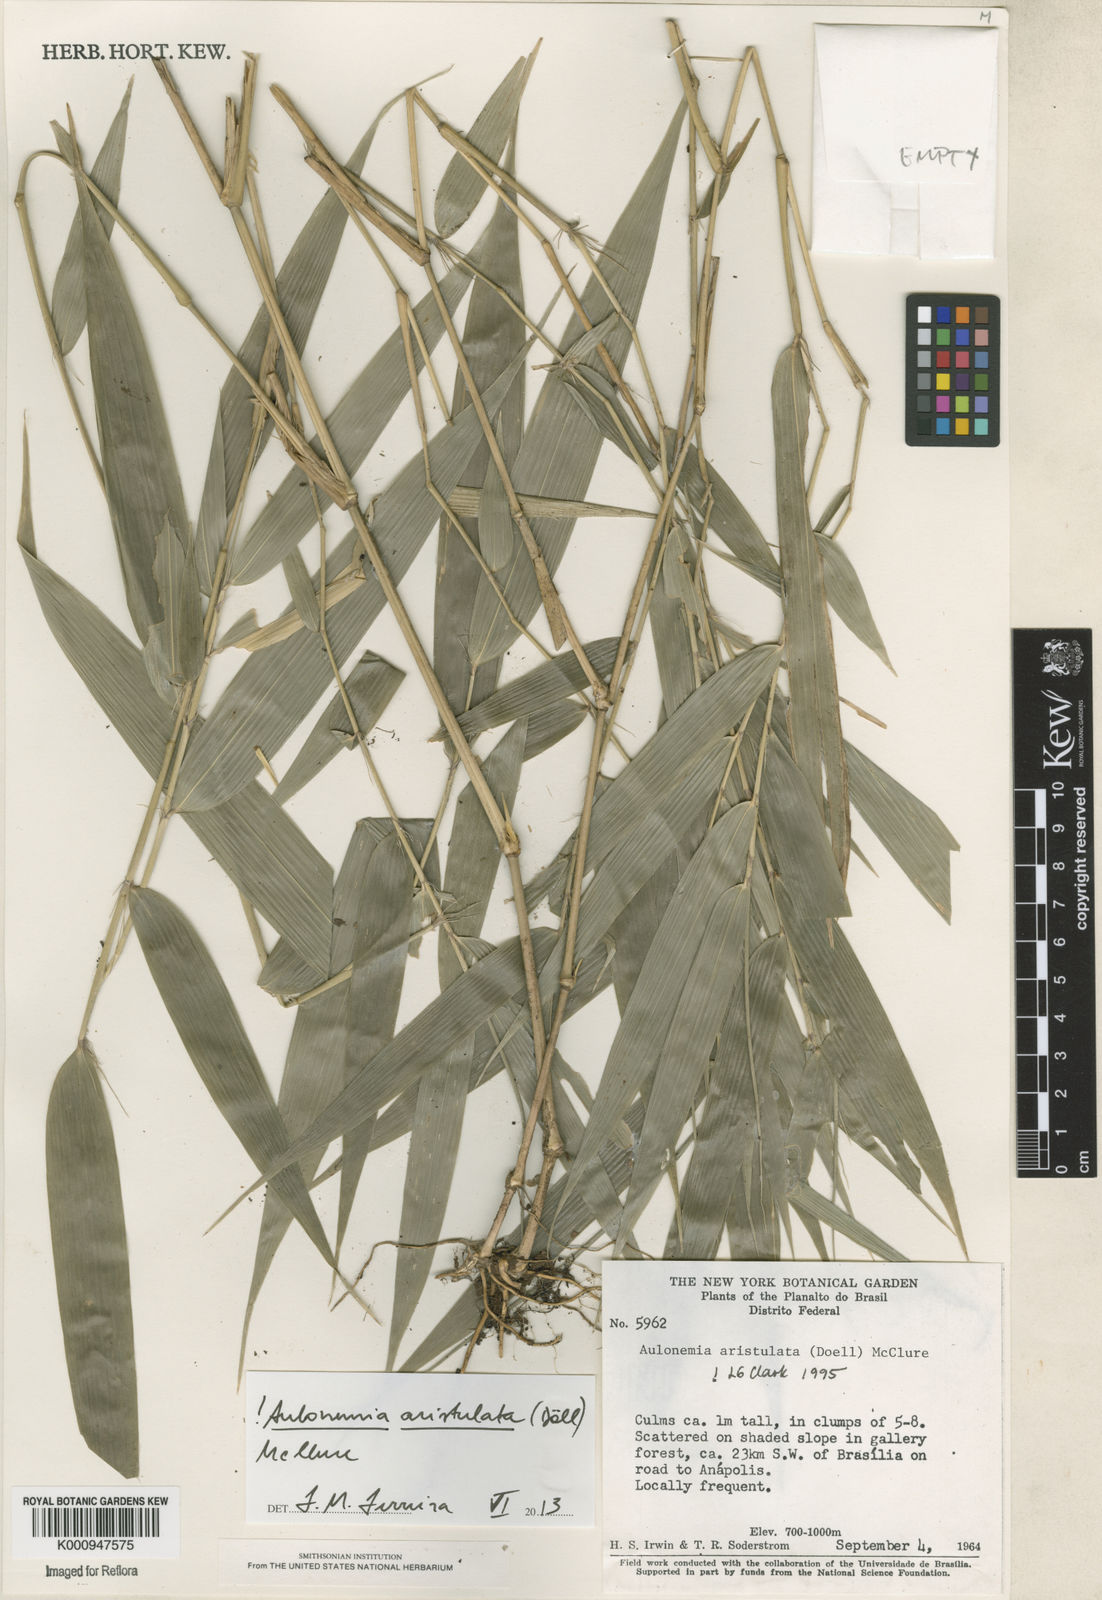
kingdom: Plantae
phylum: Tracheophyta
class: Liliopsida
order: Poales
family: Poaceae
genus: Aulonemia
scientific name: Aulonemia
